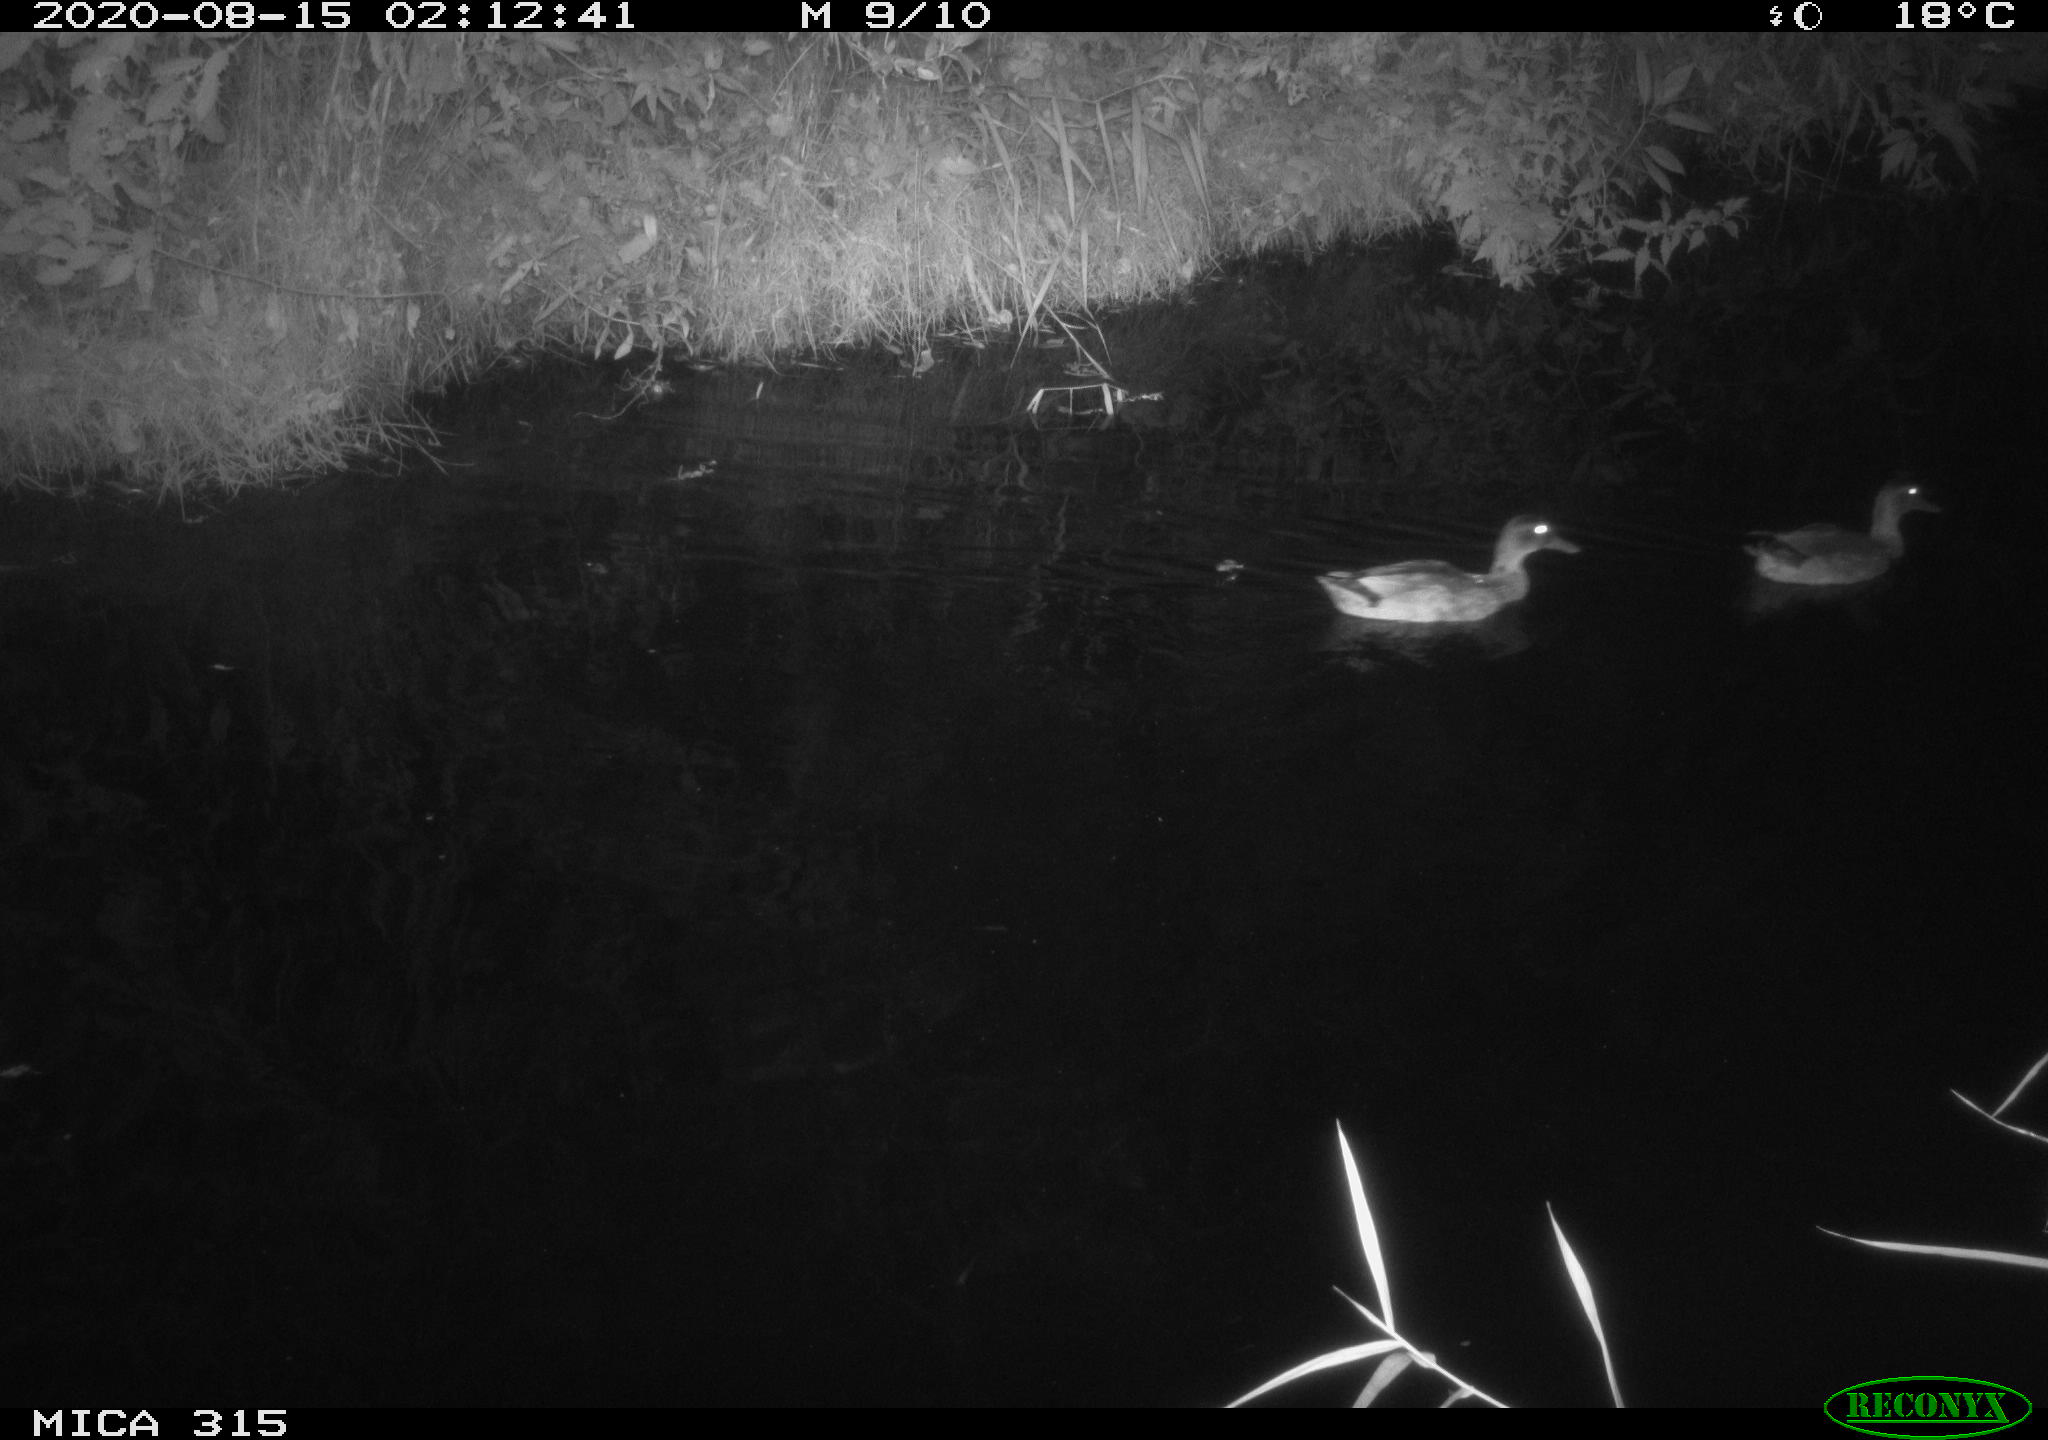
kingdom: Animalia
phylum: Chordata
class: Aves
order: Anseriformes
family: Anatidae
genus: Anas
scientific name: Anas platyrhynchos
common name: Mallard
